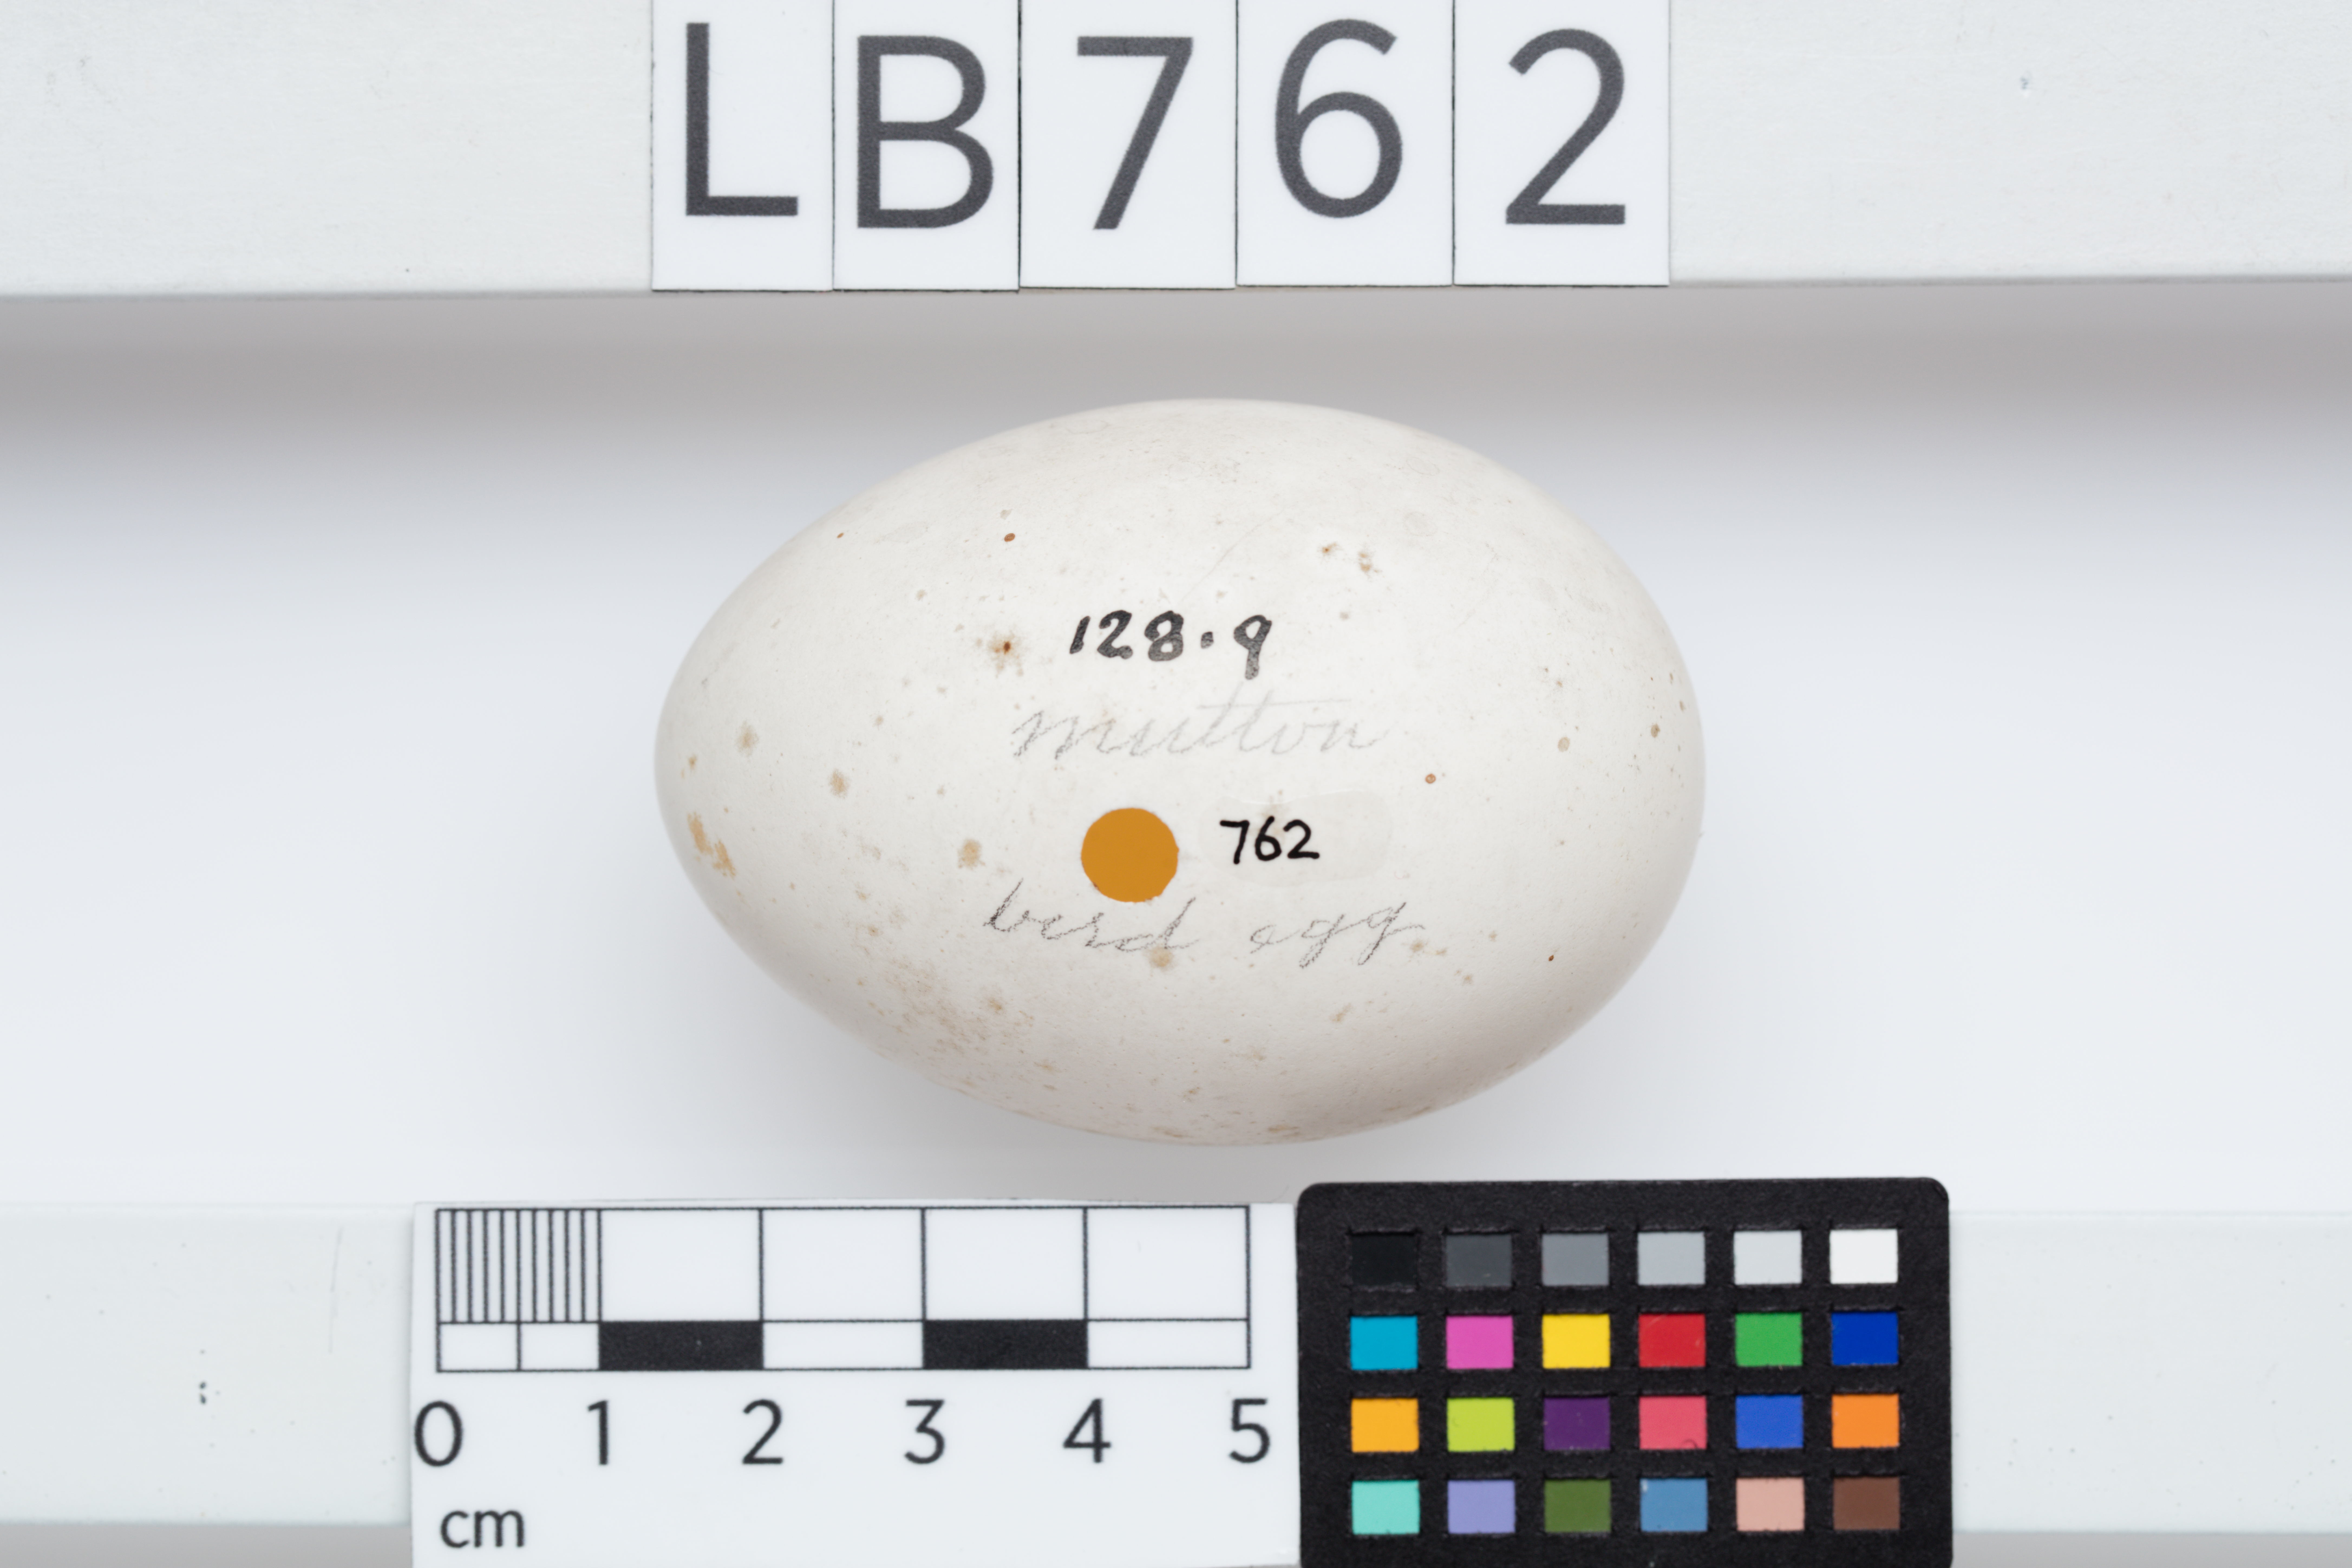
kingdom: Animalia
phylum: Chordata
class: Aves
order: Procellariiformes
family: Procellariidae
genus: Puffinus
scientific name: Puffinus
